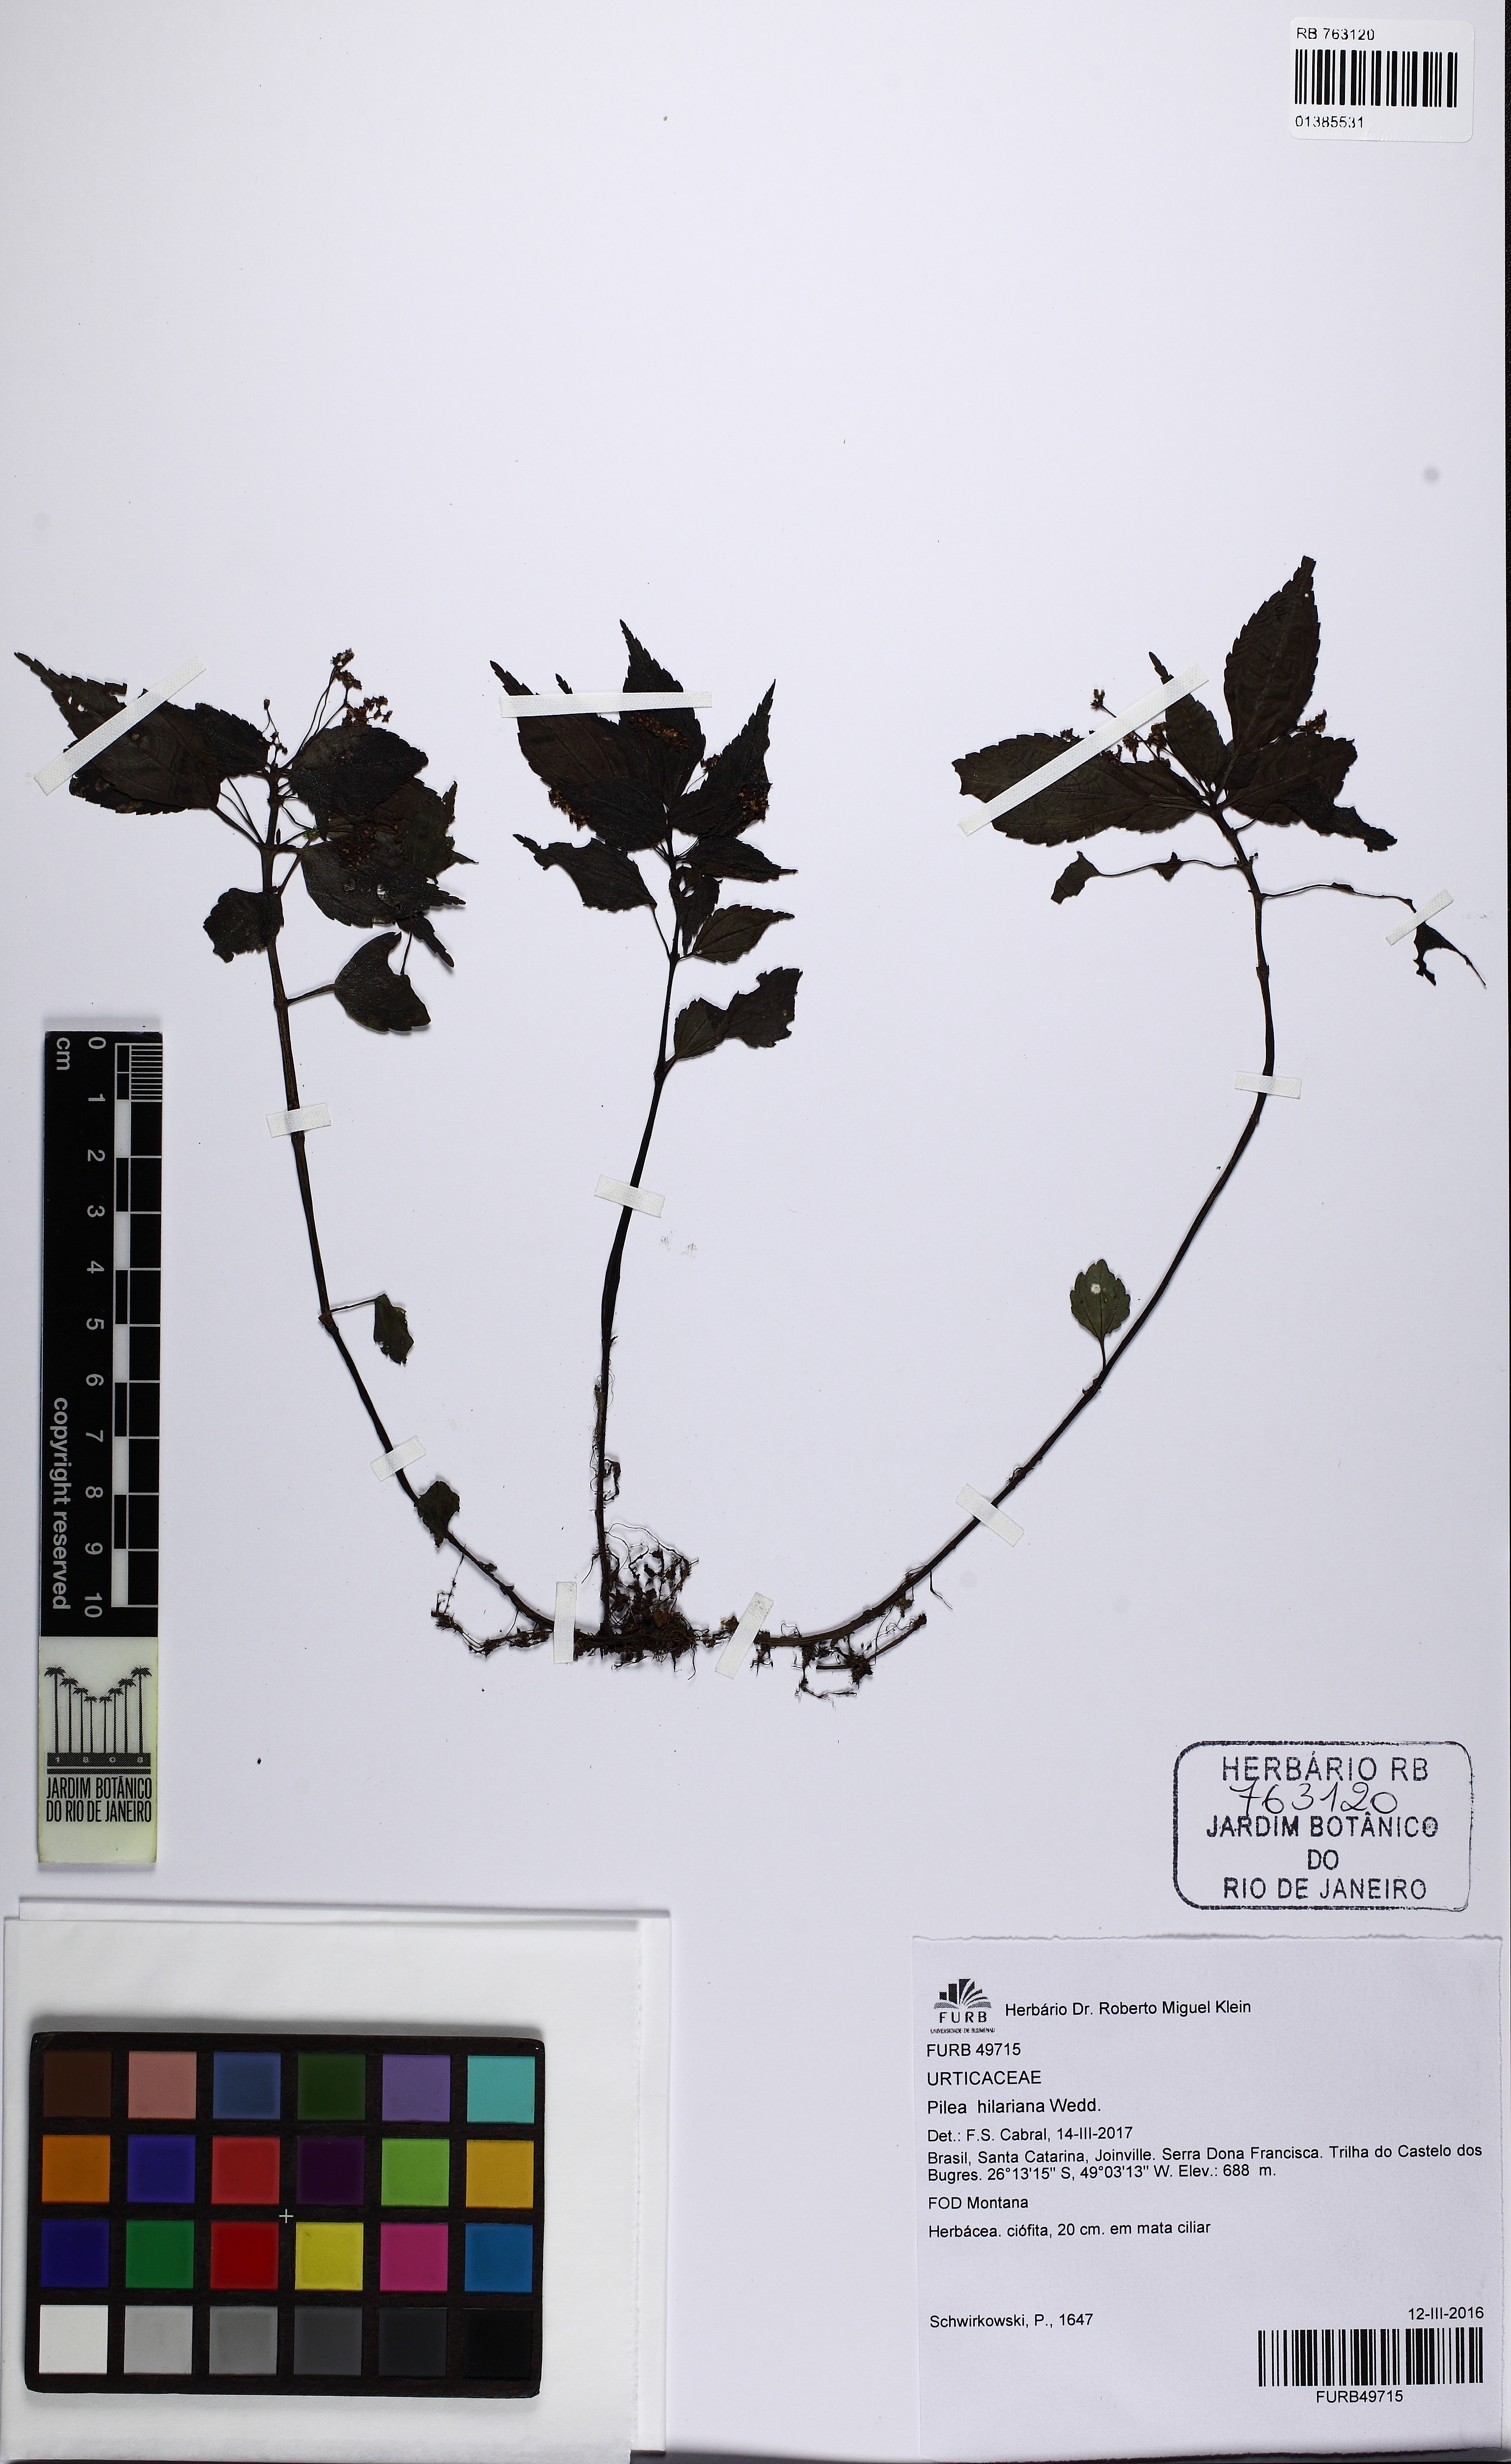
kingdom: Plantae
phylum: Tracheophyta
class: Magnoliopsida
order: Rosales
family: Urticaceae
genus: Pilea
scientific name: Pilea hilariana
